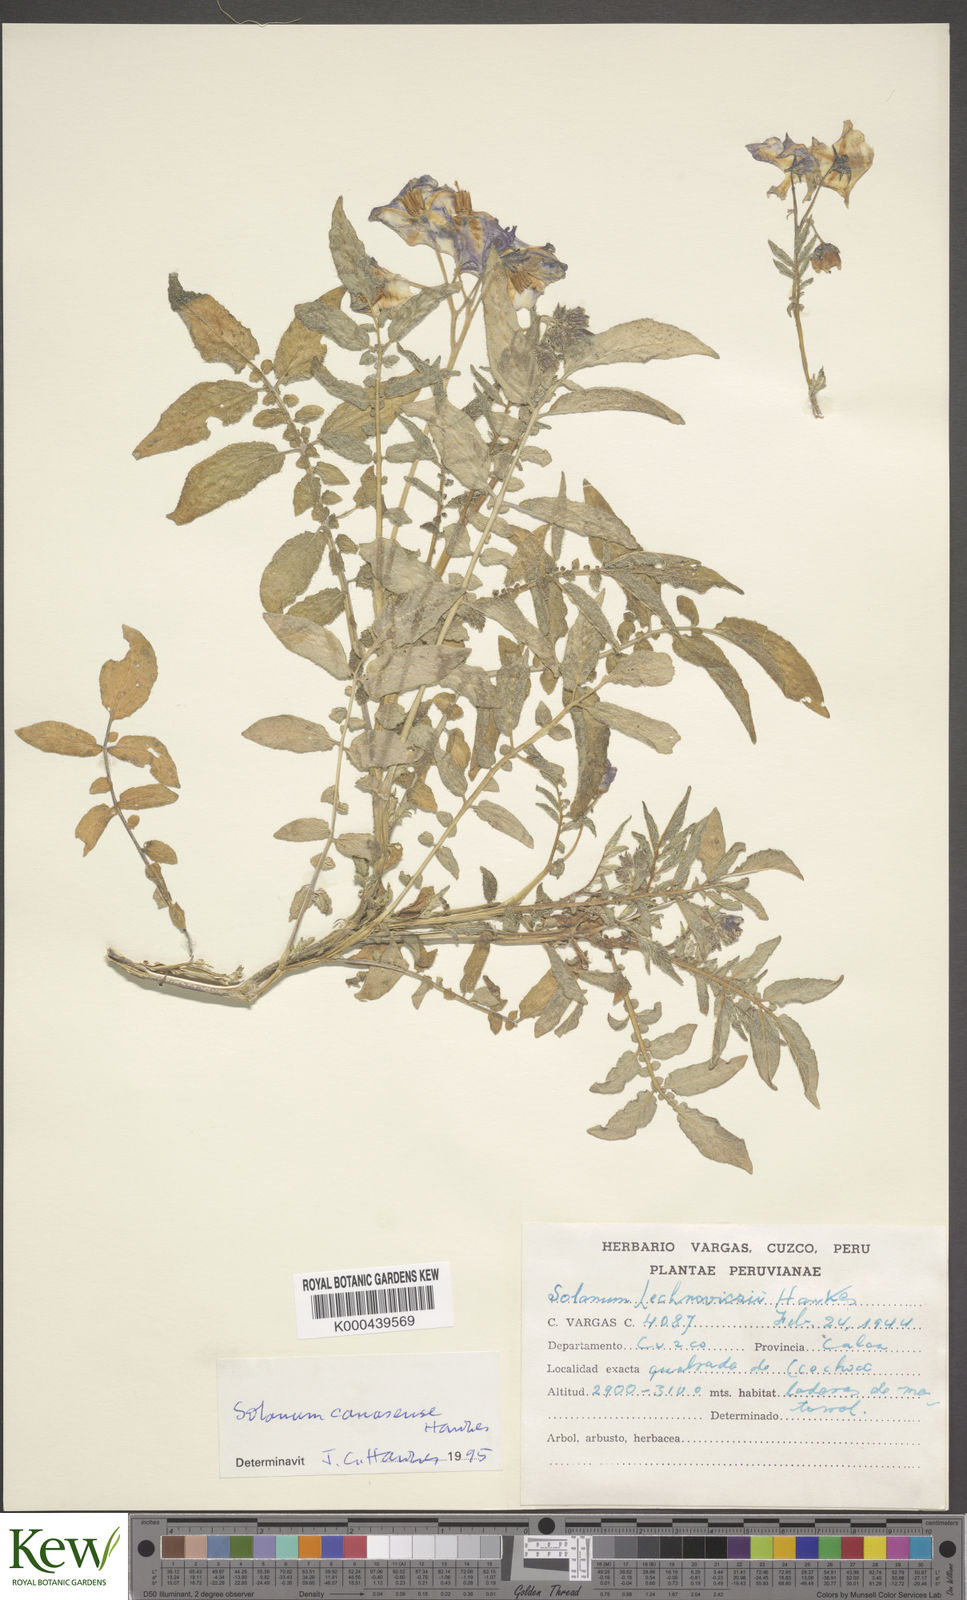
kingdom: Plantae
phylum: Tracheophyta
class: Magnoliopsida
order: Solanales
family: Solanaceae
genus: Solanum
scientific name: Solanum candolleanum
